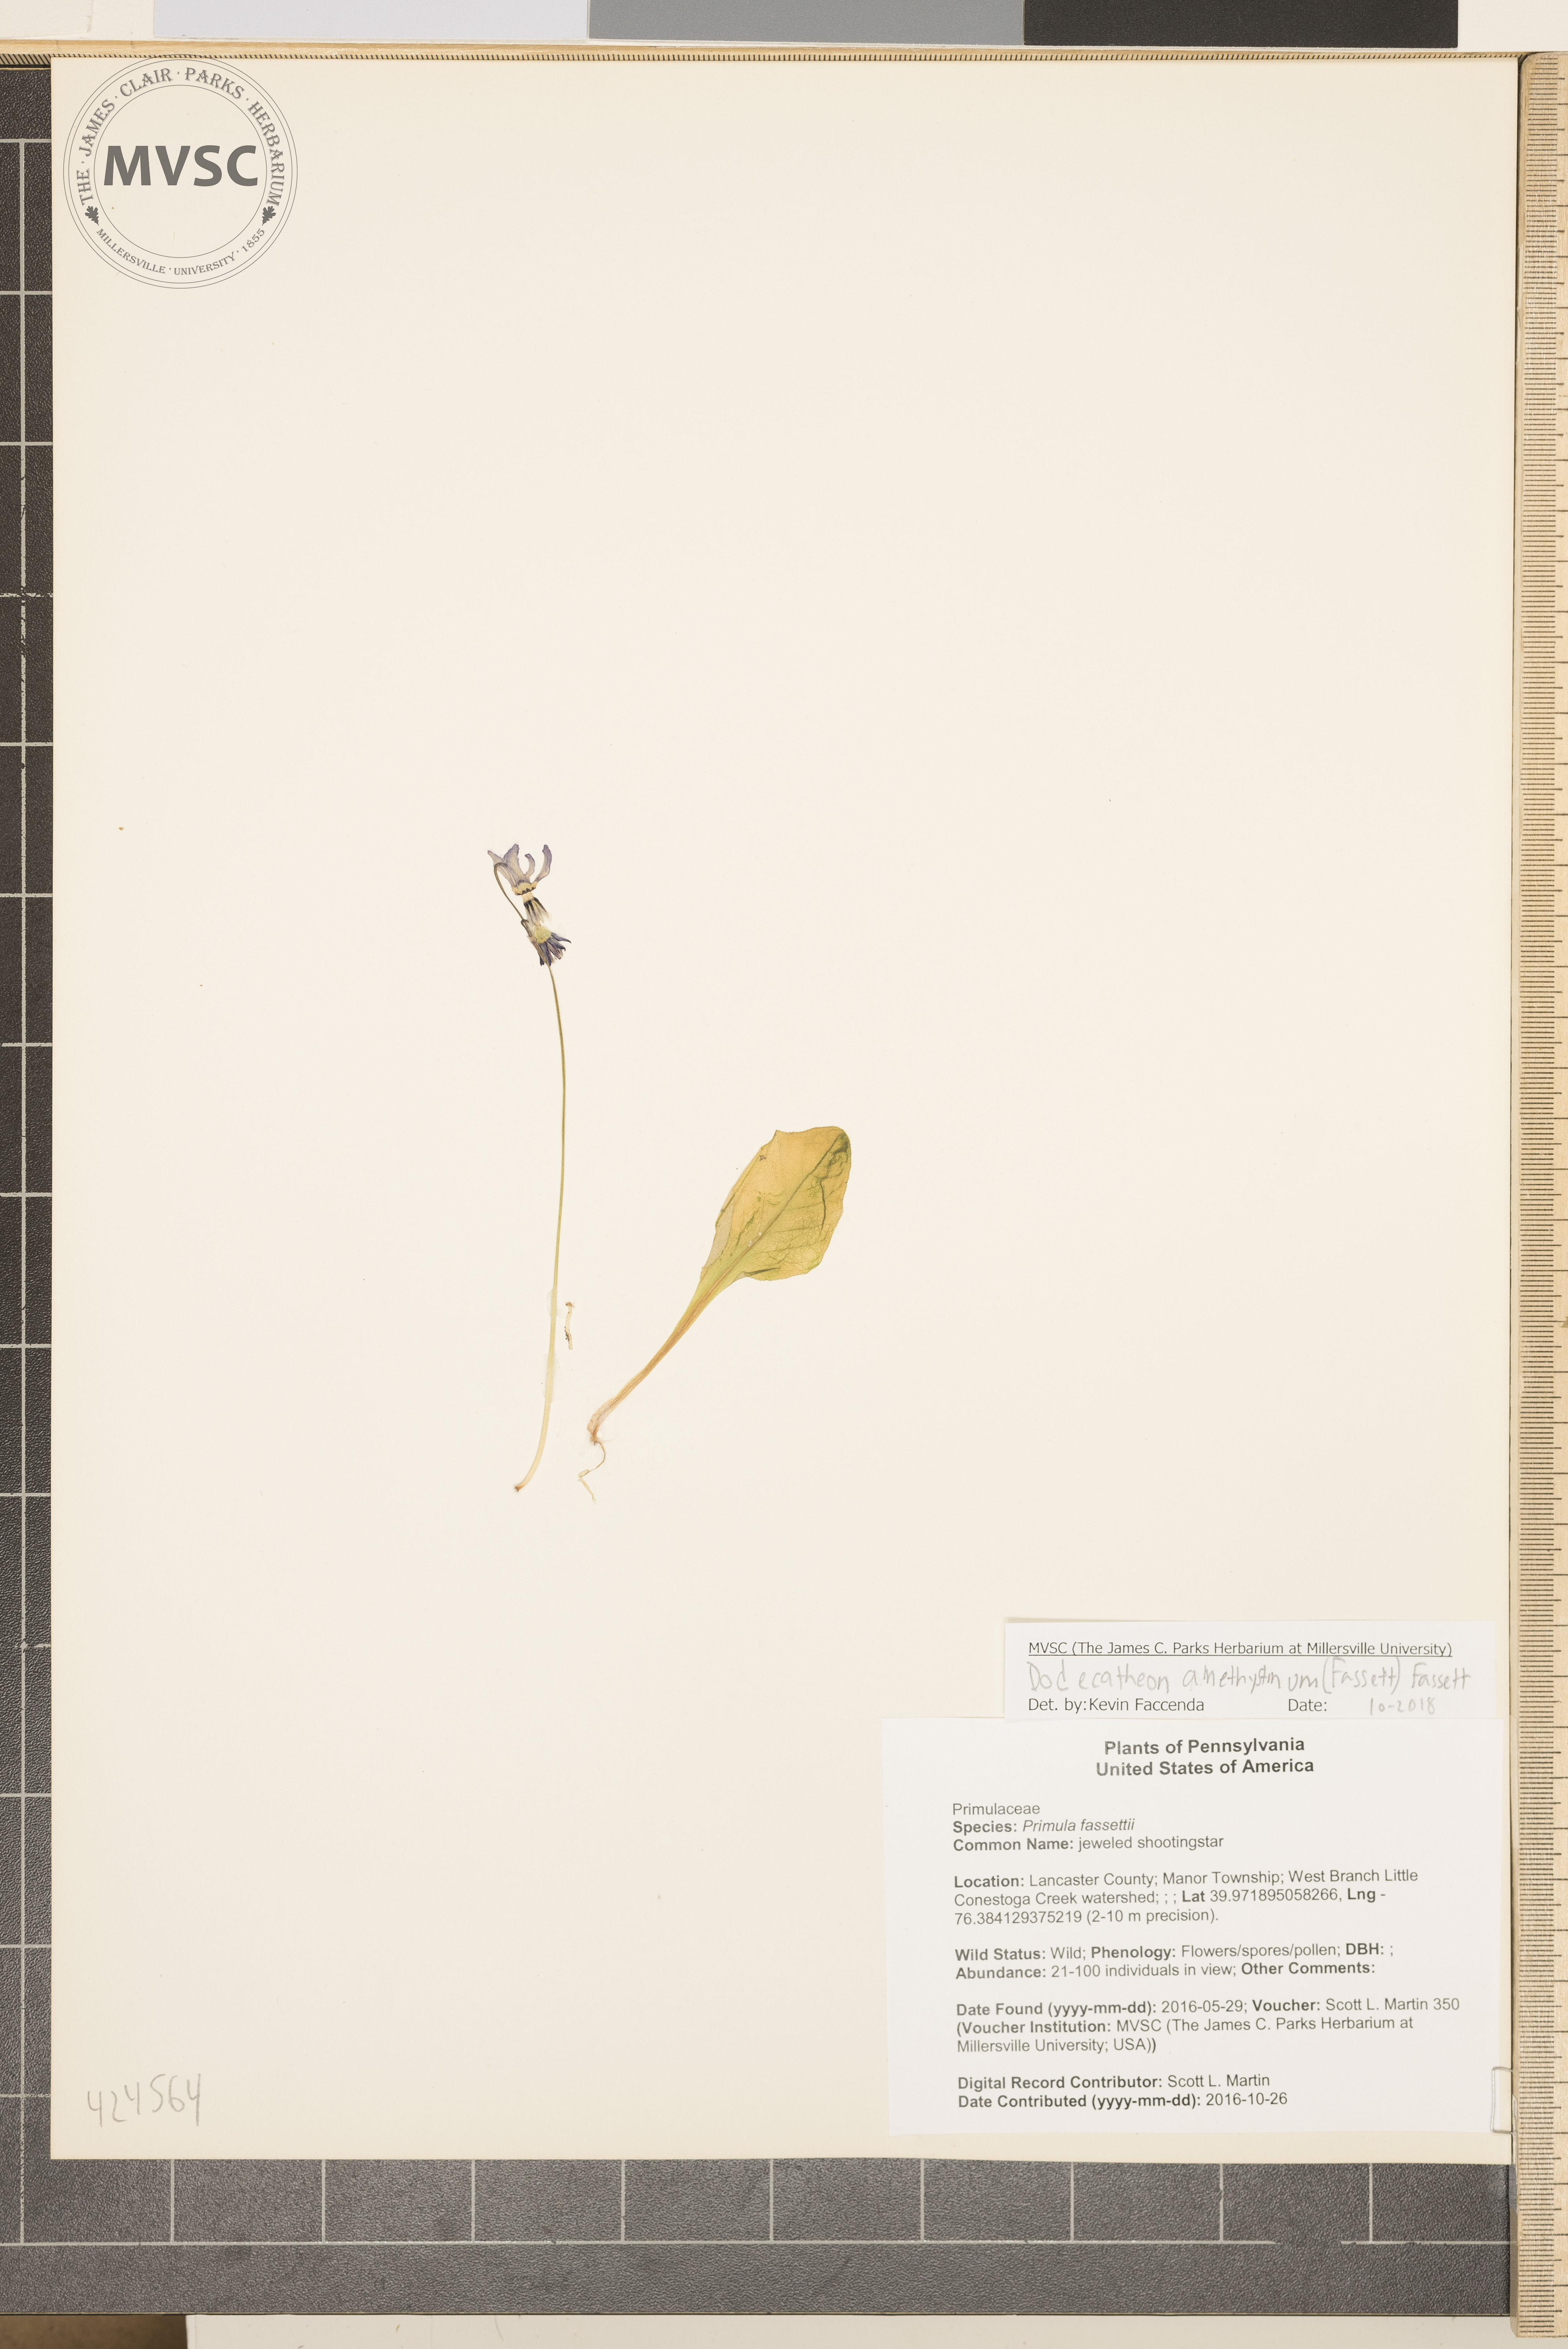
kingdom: Plantae
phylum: Tracheophyta
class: Magnoliopsida
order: Ericales
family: Primulaceae
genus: Dodecatheon
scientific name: Dodecatheon amethystinum
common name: jeweled shootingstar
